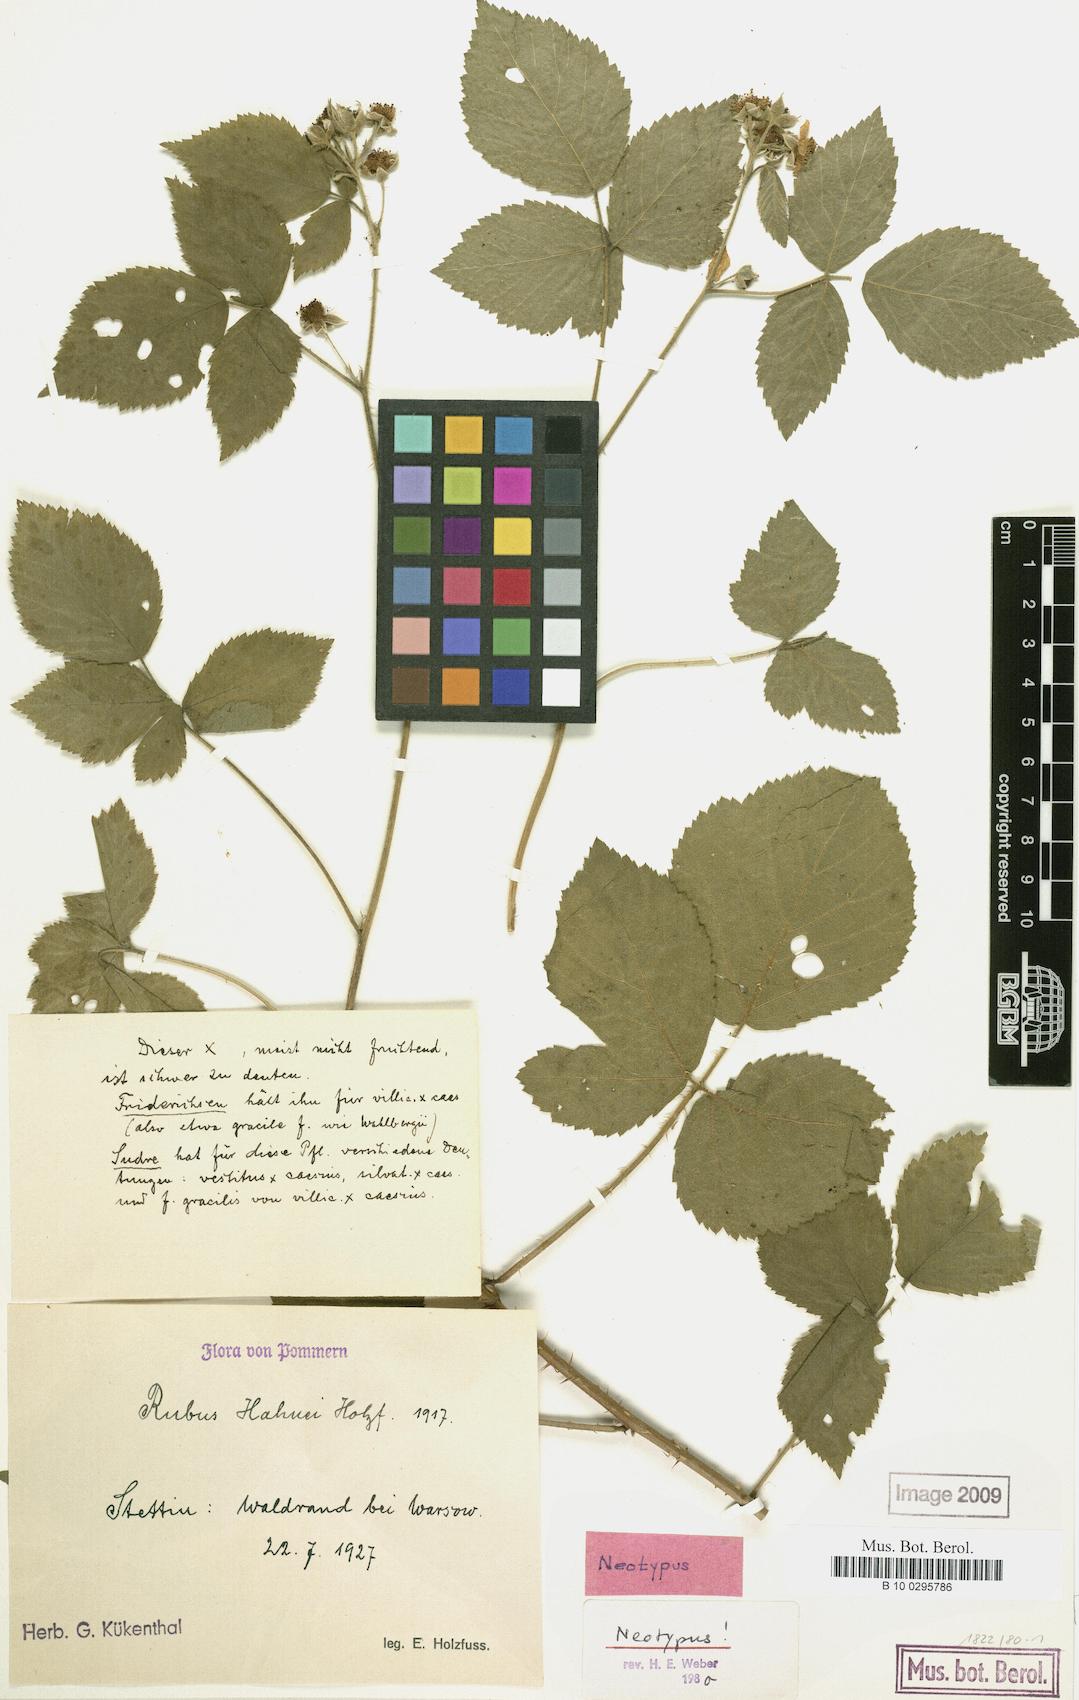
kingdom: Plantae
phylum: Tracheophyta
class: Magnoliopsida
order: Rosales
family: Rosaceae
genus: Rubus
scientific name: Rubus hahnei
